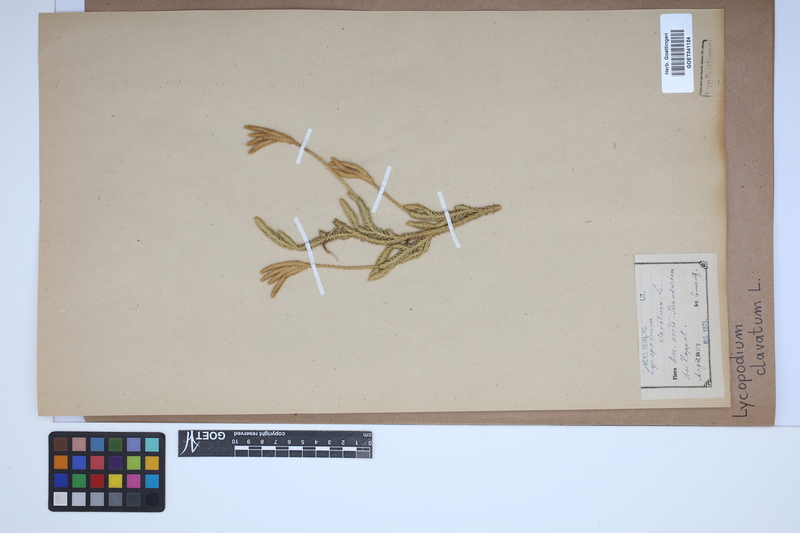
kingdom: Plantae
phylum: Tracheophyta
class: Lycopodiopsida
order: Lycopodiales
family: Lycopodiaceae
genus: Lycopodium
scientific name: Lycopodium clavatum
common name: Stag's-horn clubmoss
